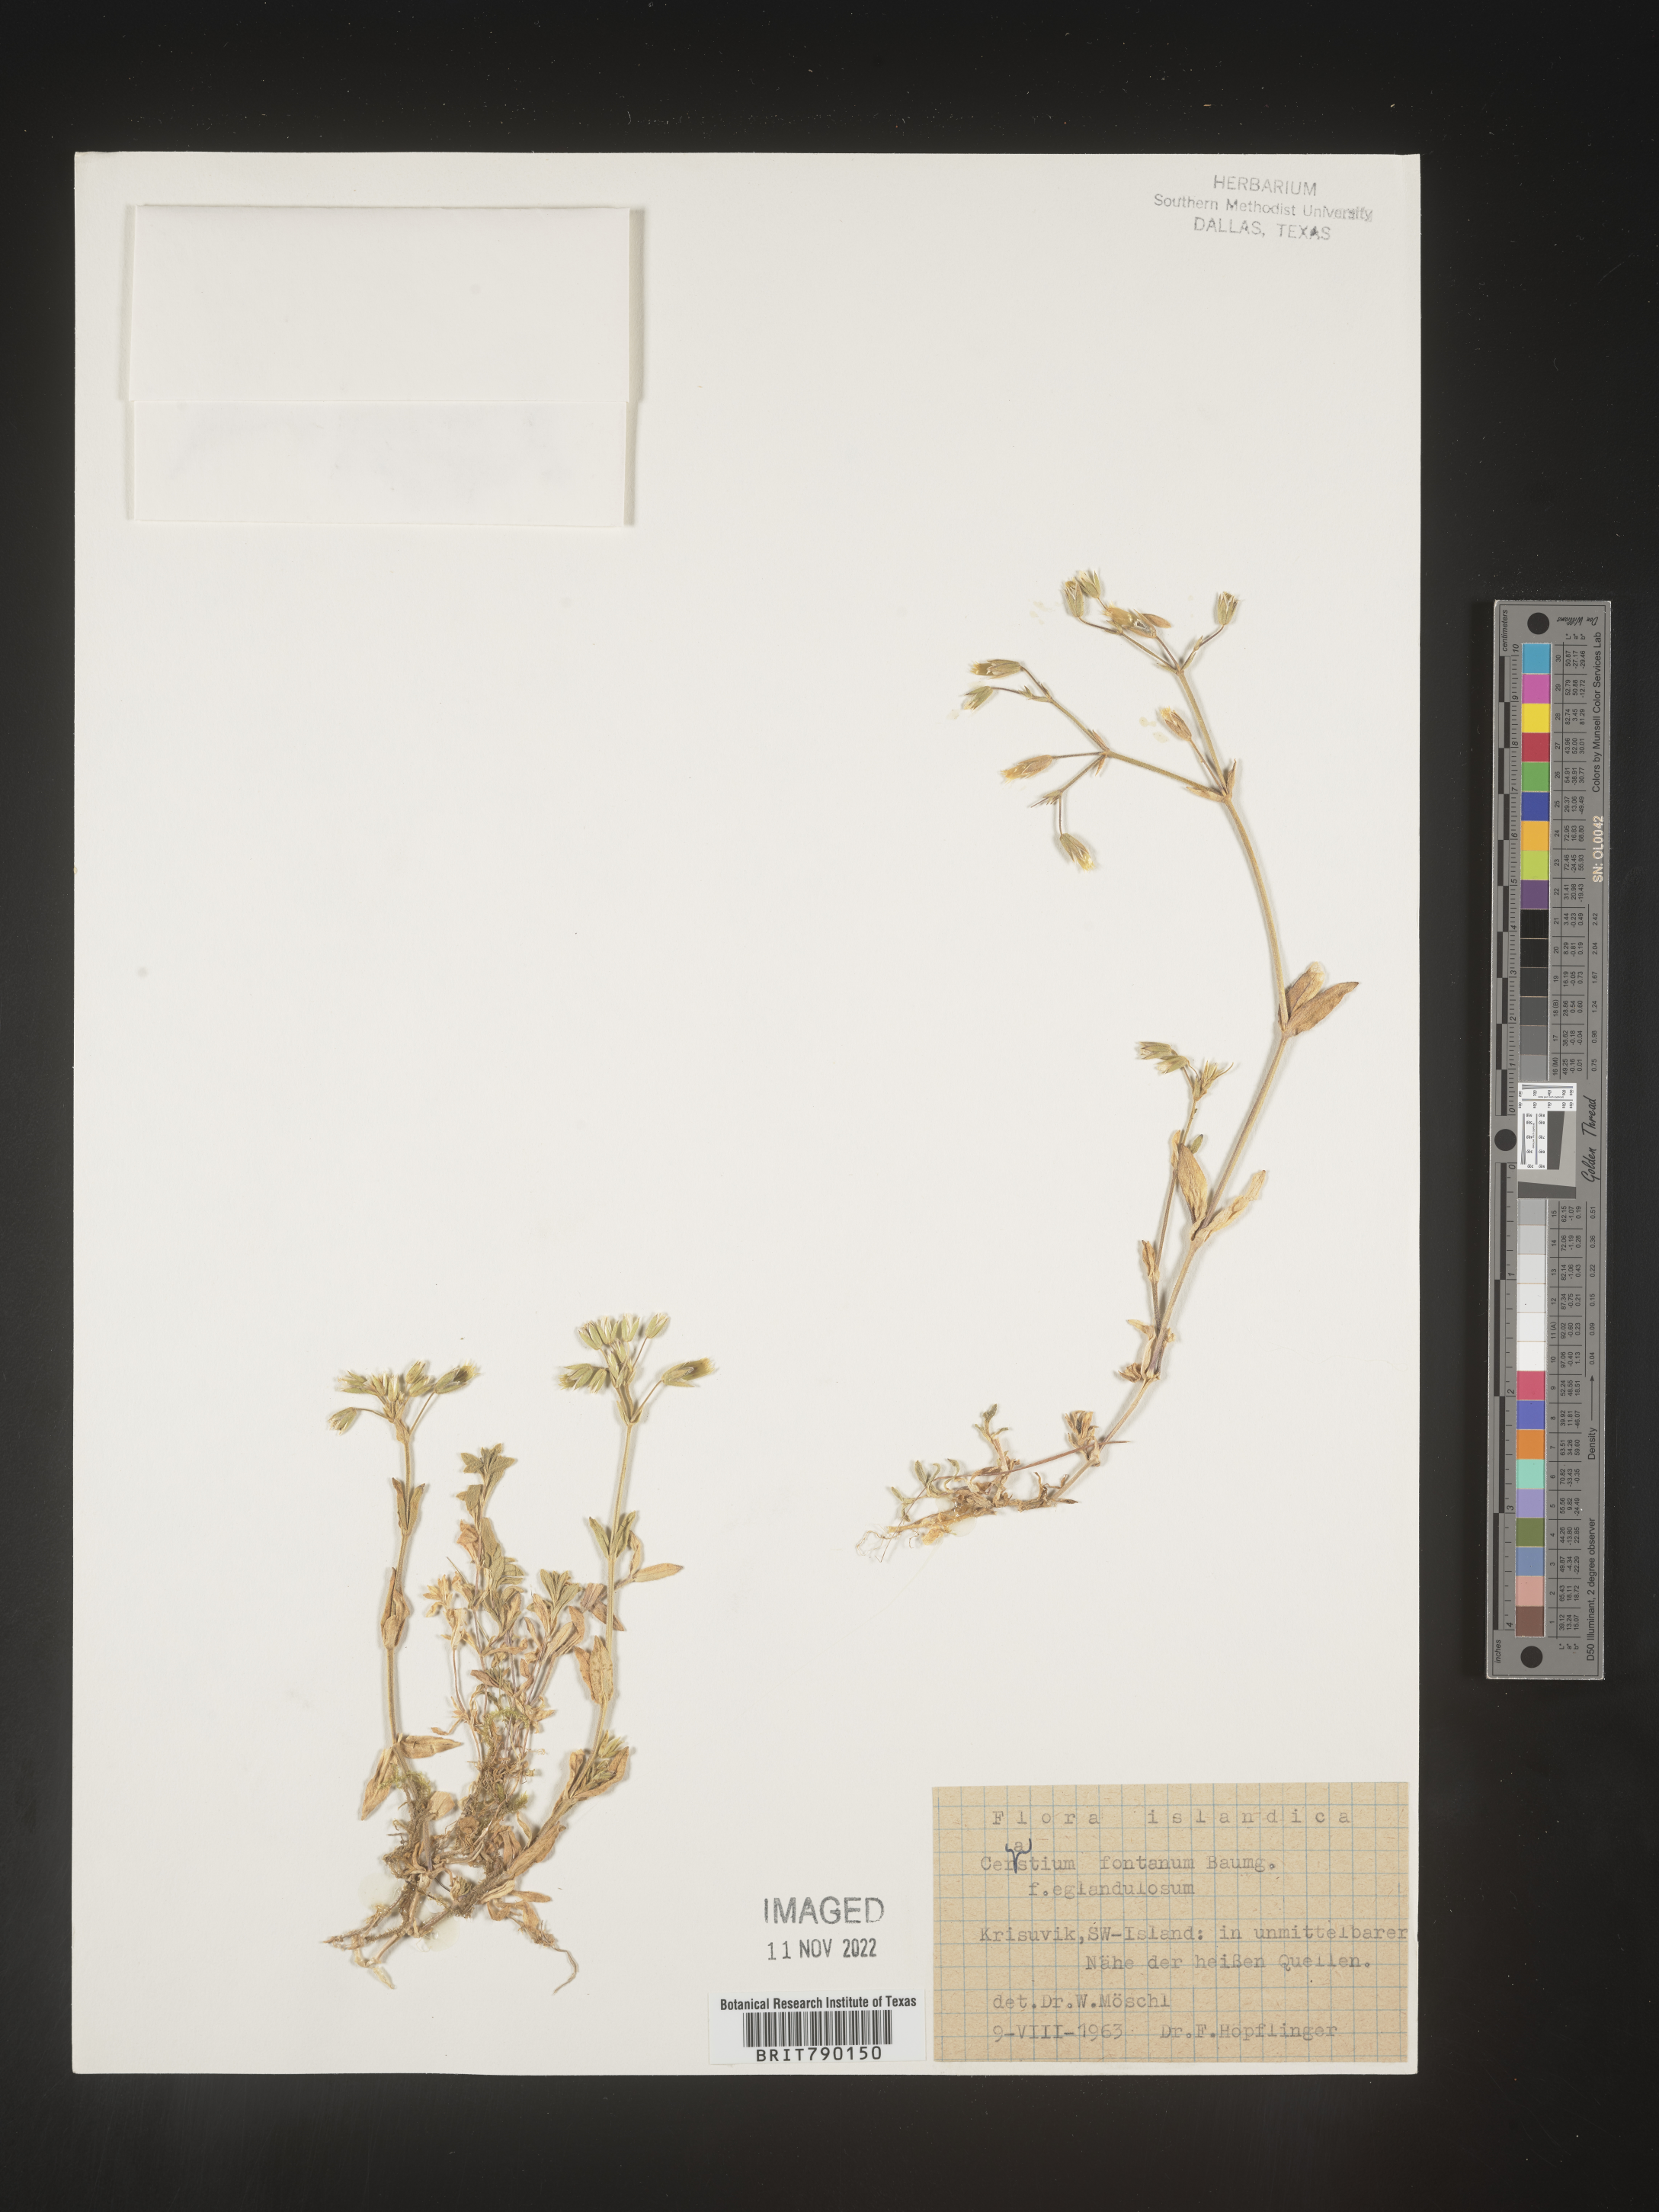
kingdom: Plantae
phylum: Tracheophyta
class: Magnoliopsida
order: Caryophyllales
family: Caryophyllaceae
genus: Cerastium
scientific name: Cerastium
